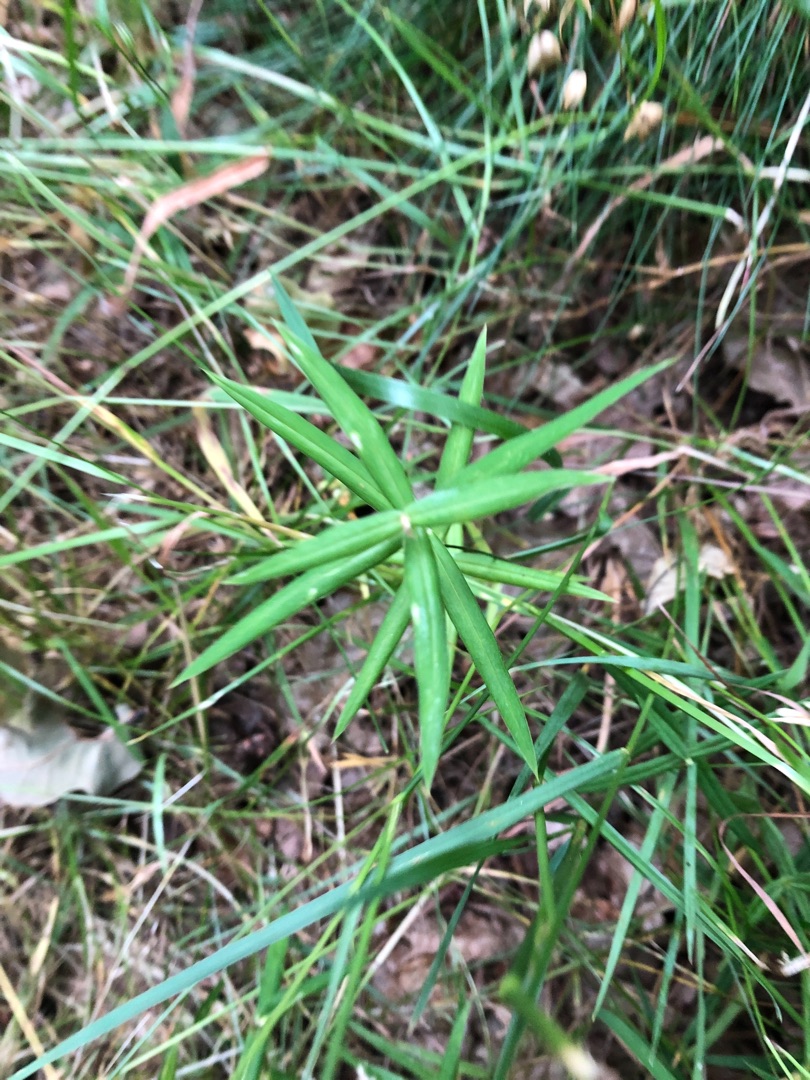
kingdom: Plantae
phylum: Tracheophyta
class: Magnoliopsida
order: Caryophyllales
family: Caryophyllaceae
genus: Rabelera
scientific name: Rabelera holostea
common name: Stor fladstjerne
